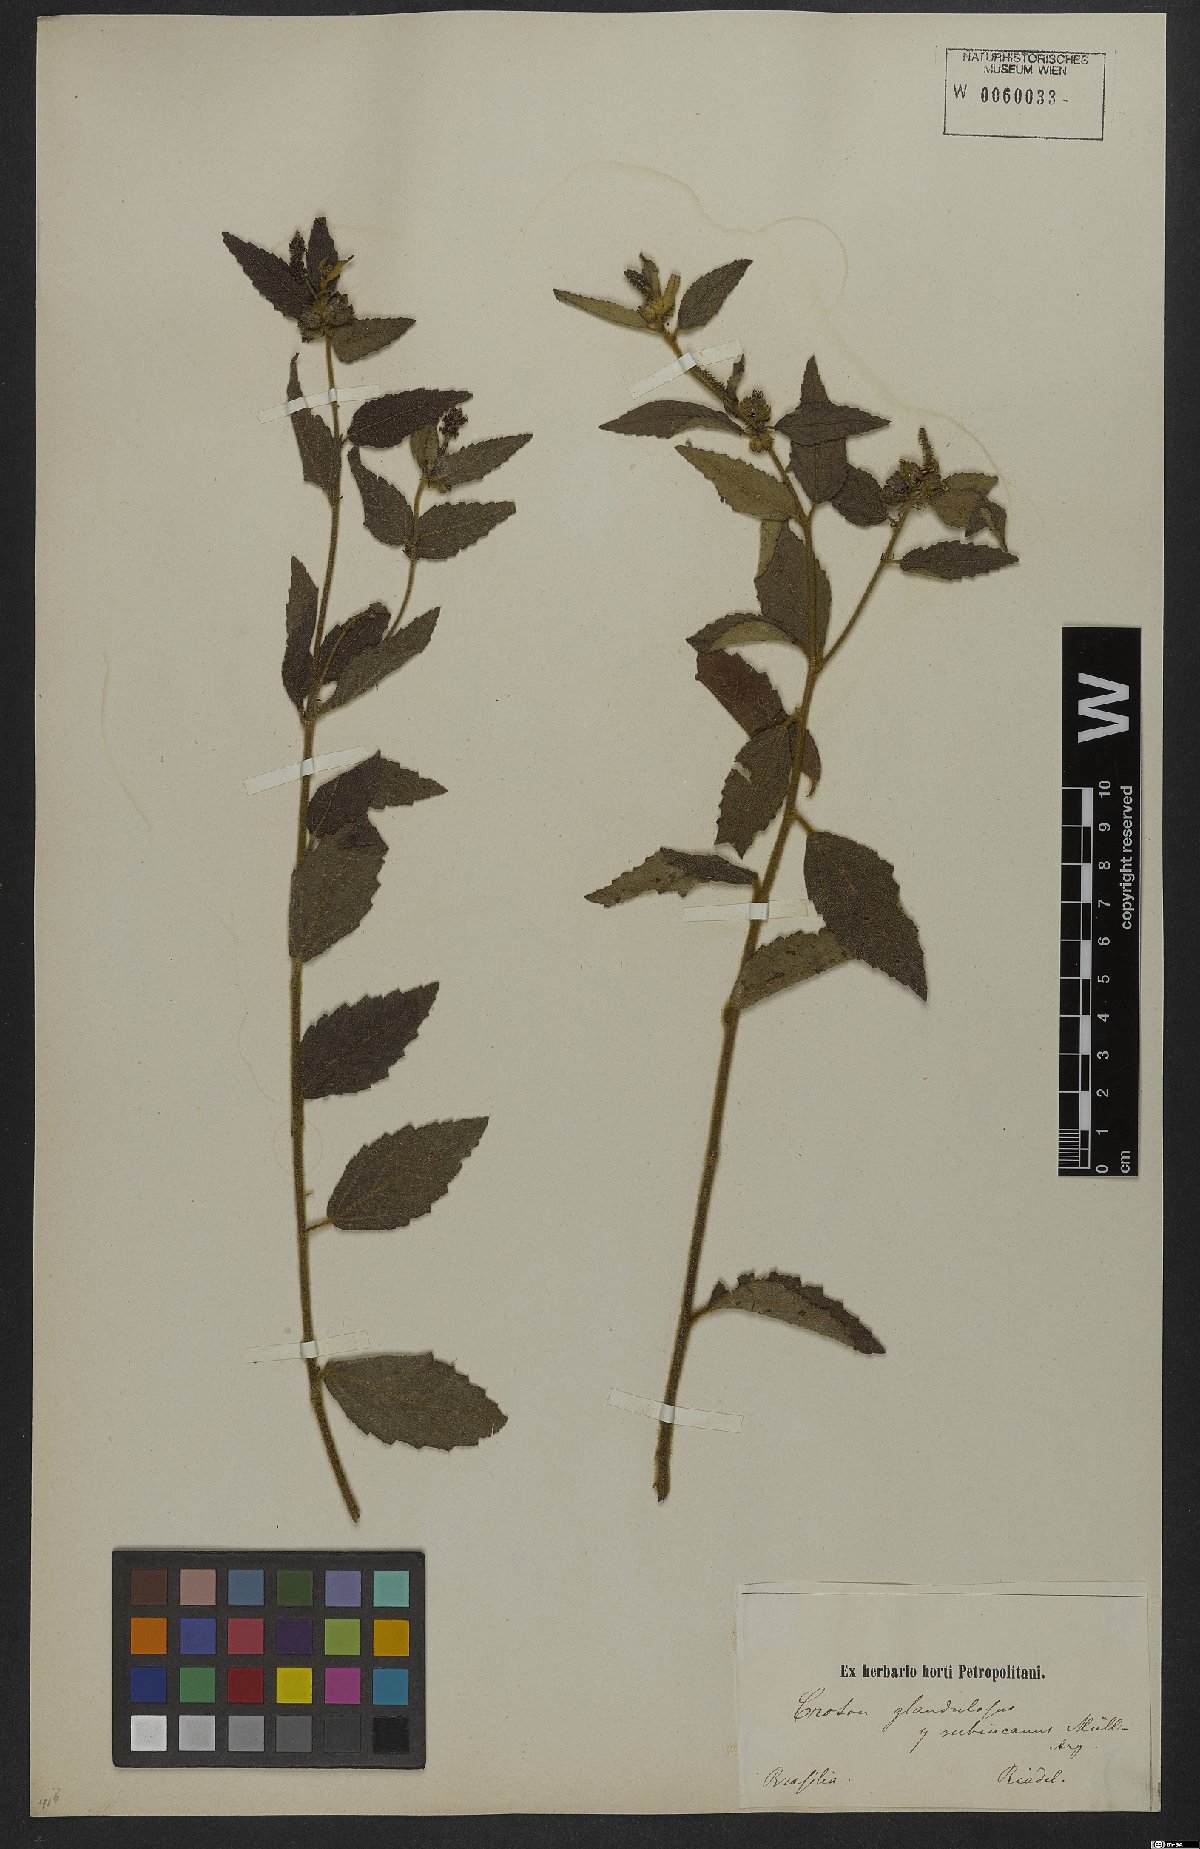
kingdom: Plantae
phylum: Tracheophyta
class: Magnoliopsida
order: Malpighiales
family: Euphorbiaceae
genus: Croton
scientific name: Croton glandulosus
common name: Tropic croton
